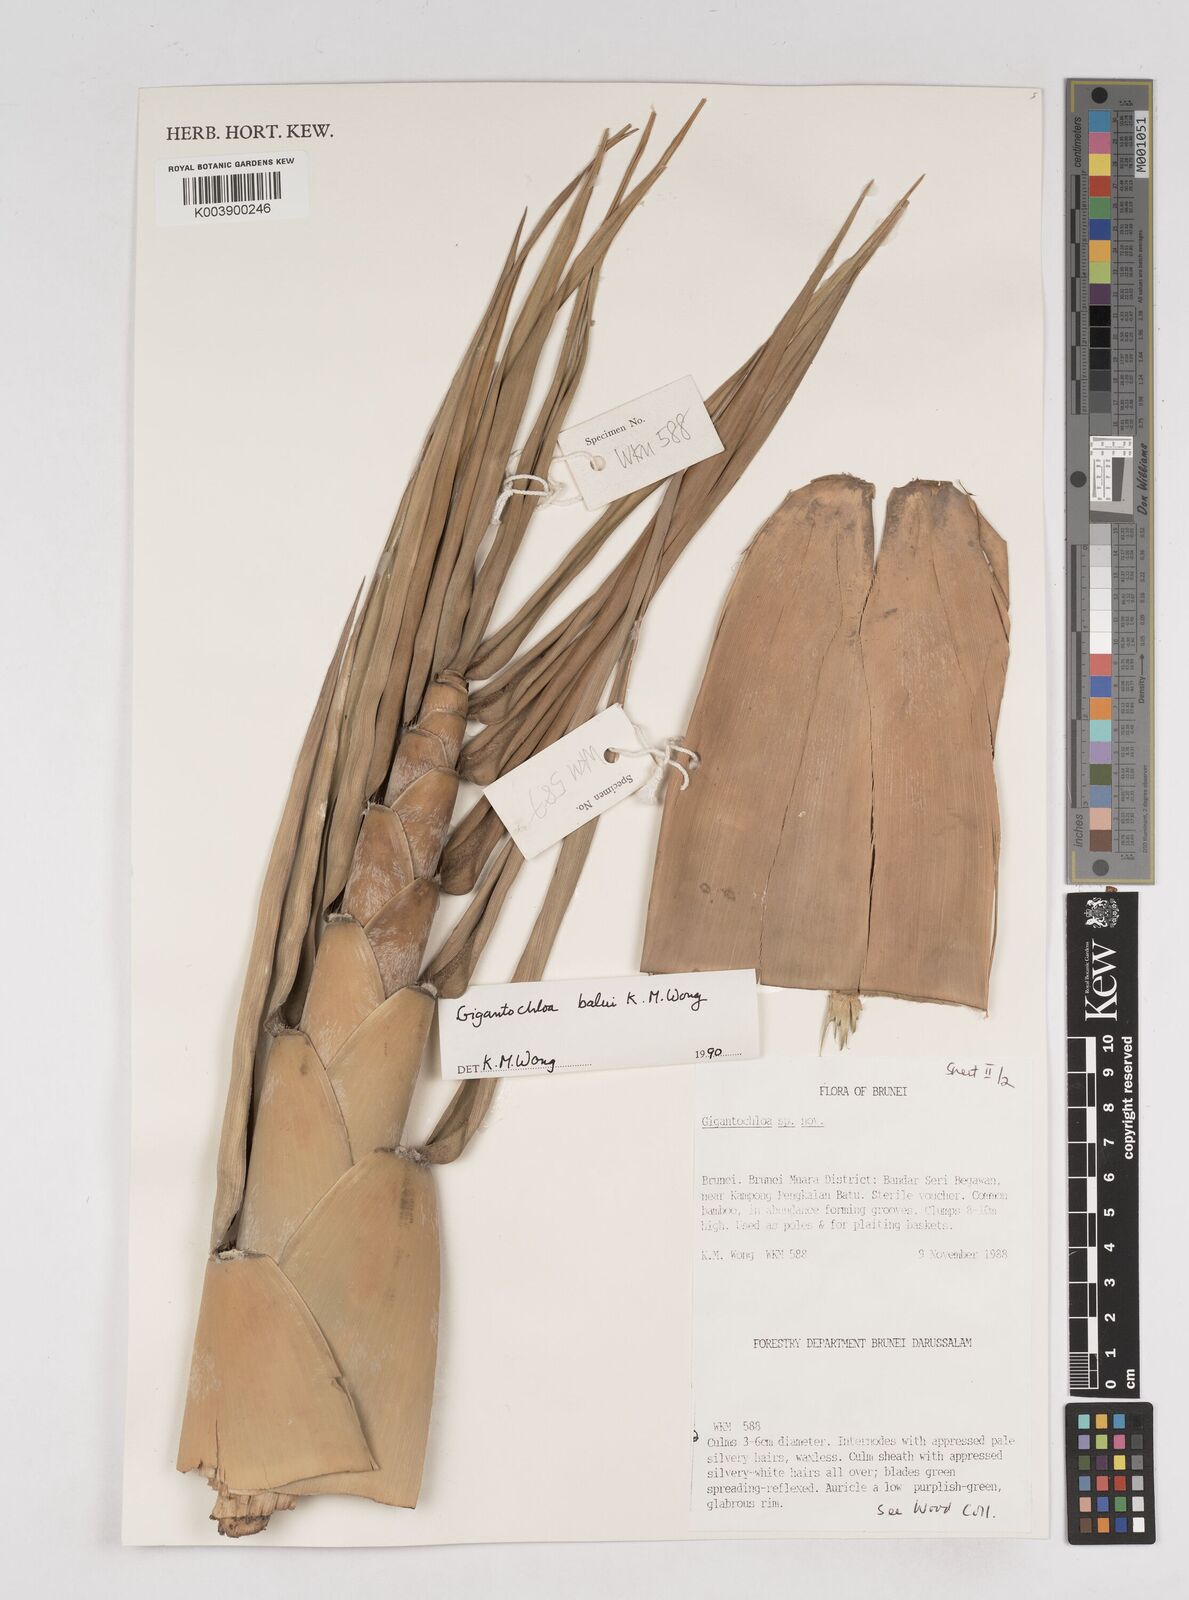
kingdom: Plantae
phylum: Tracheophyta
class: Liliopsida
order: Poales
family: Poaceae
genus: Gigantochloa
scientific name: Gigantochloa balui
